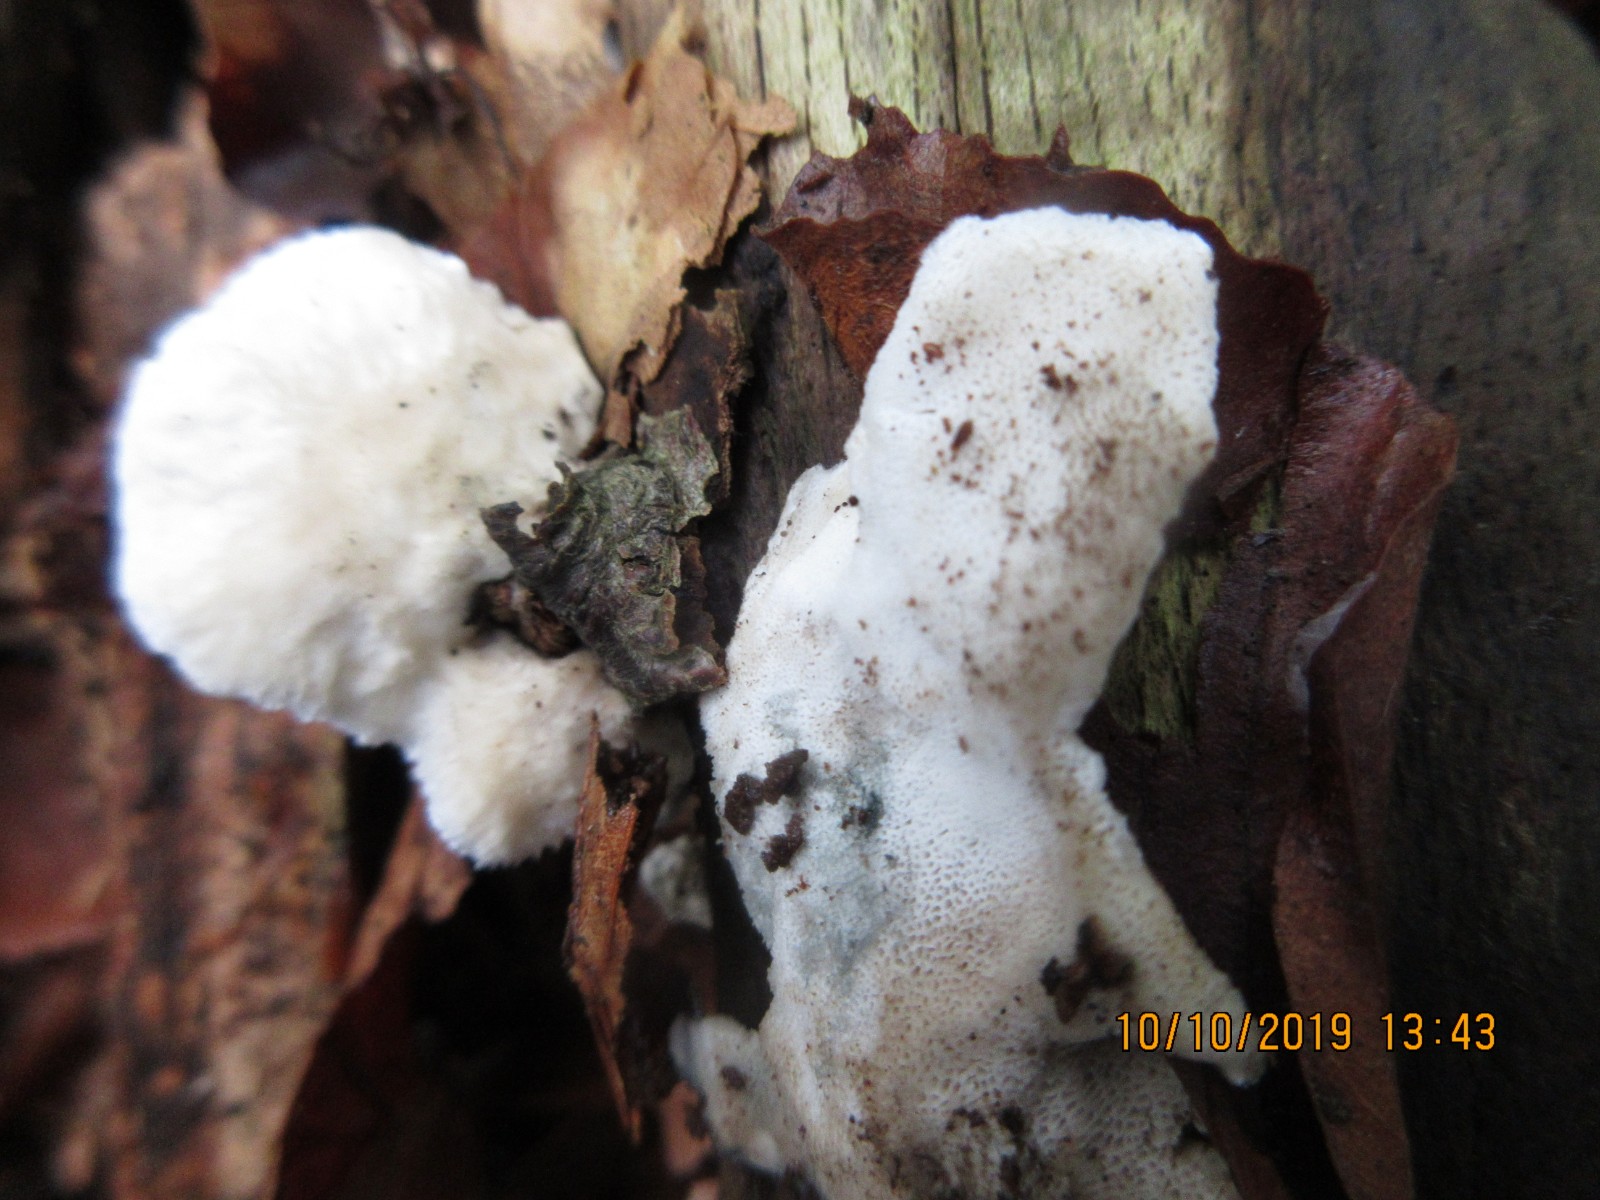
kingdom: Fungi
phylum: Basidiomycota
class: Agaricomycetes
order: Polyporales
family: Polyporaceae
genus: Cyanosporus
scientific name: Cyanosporus alni
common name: blegblå kødporesvamp
